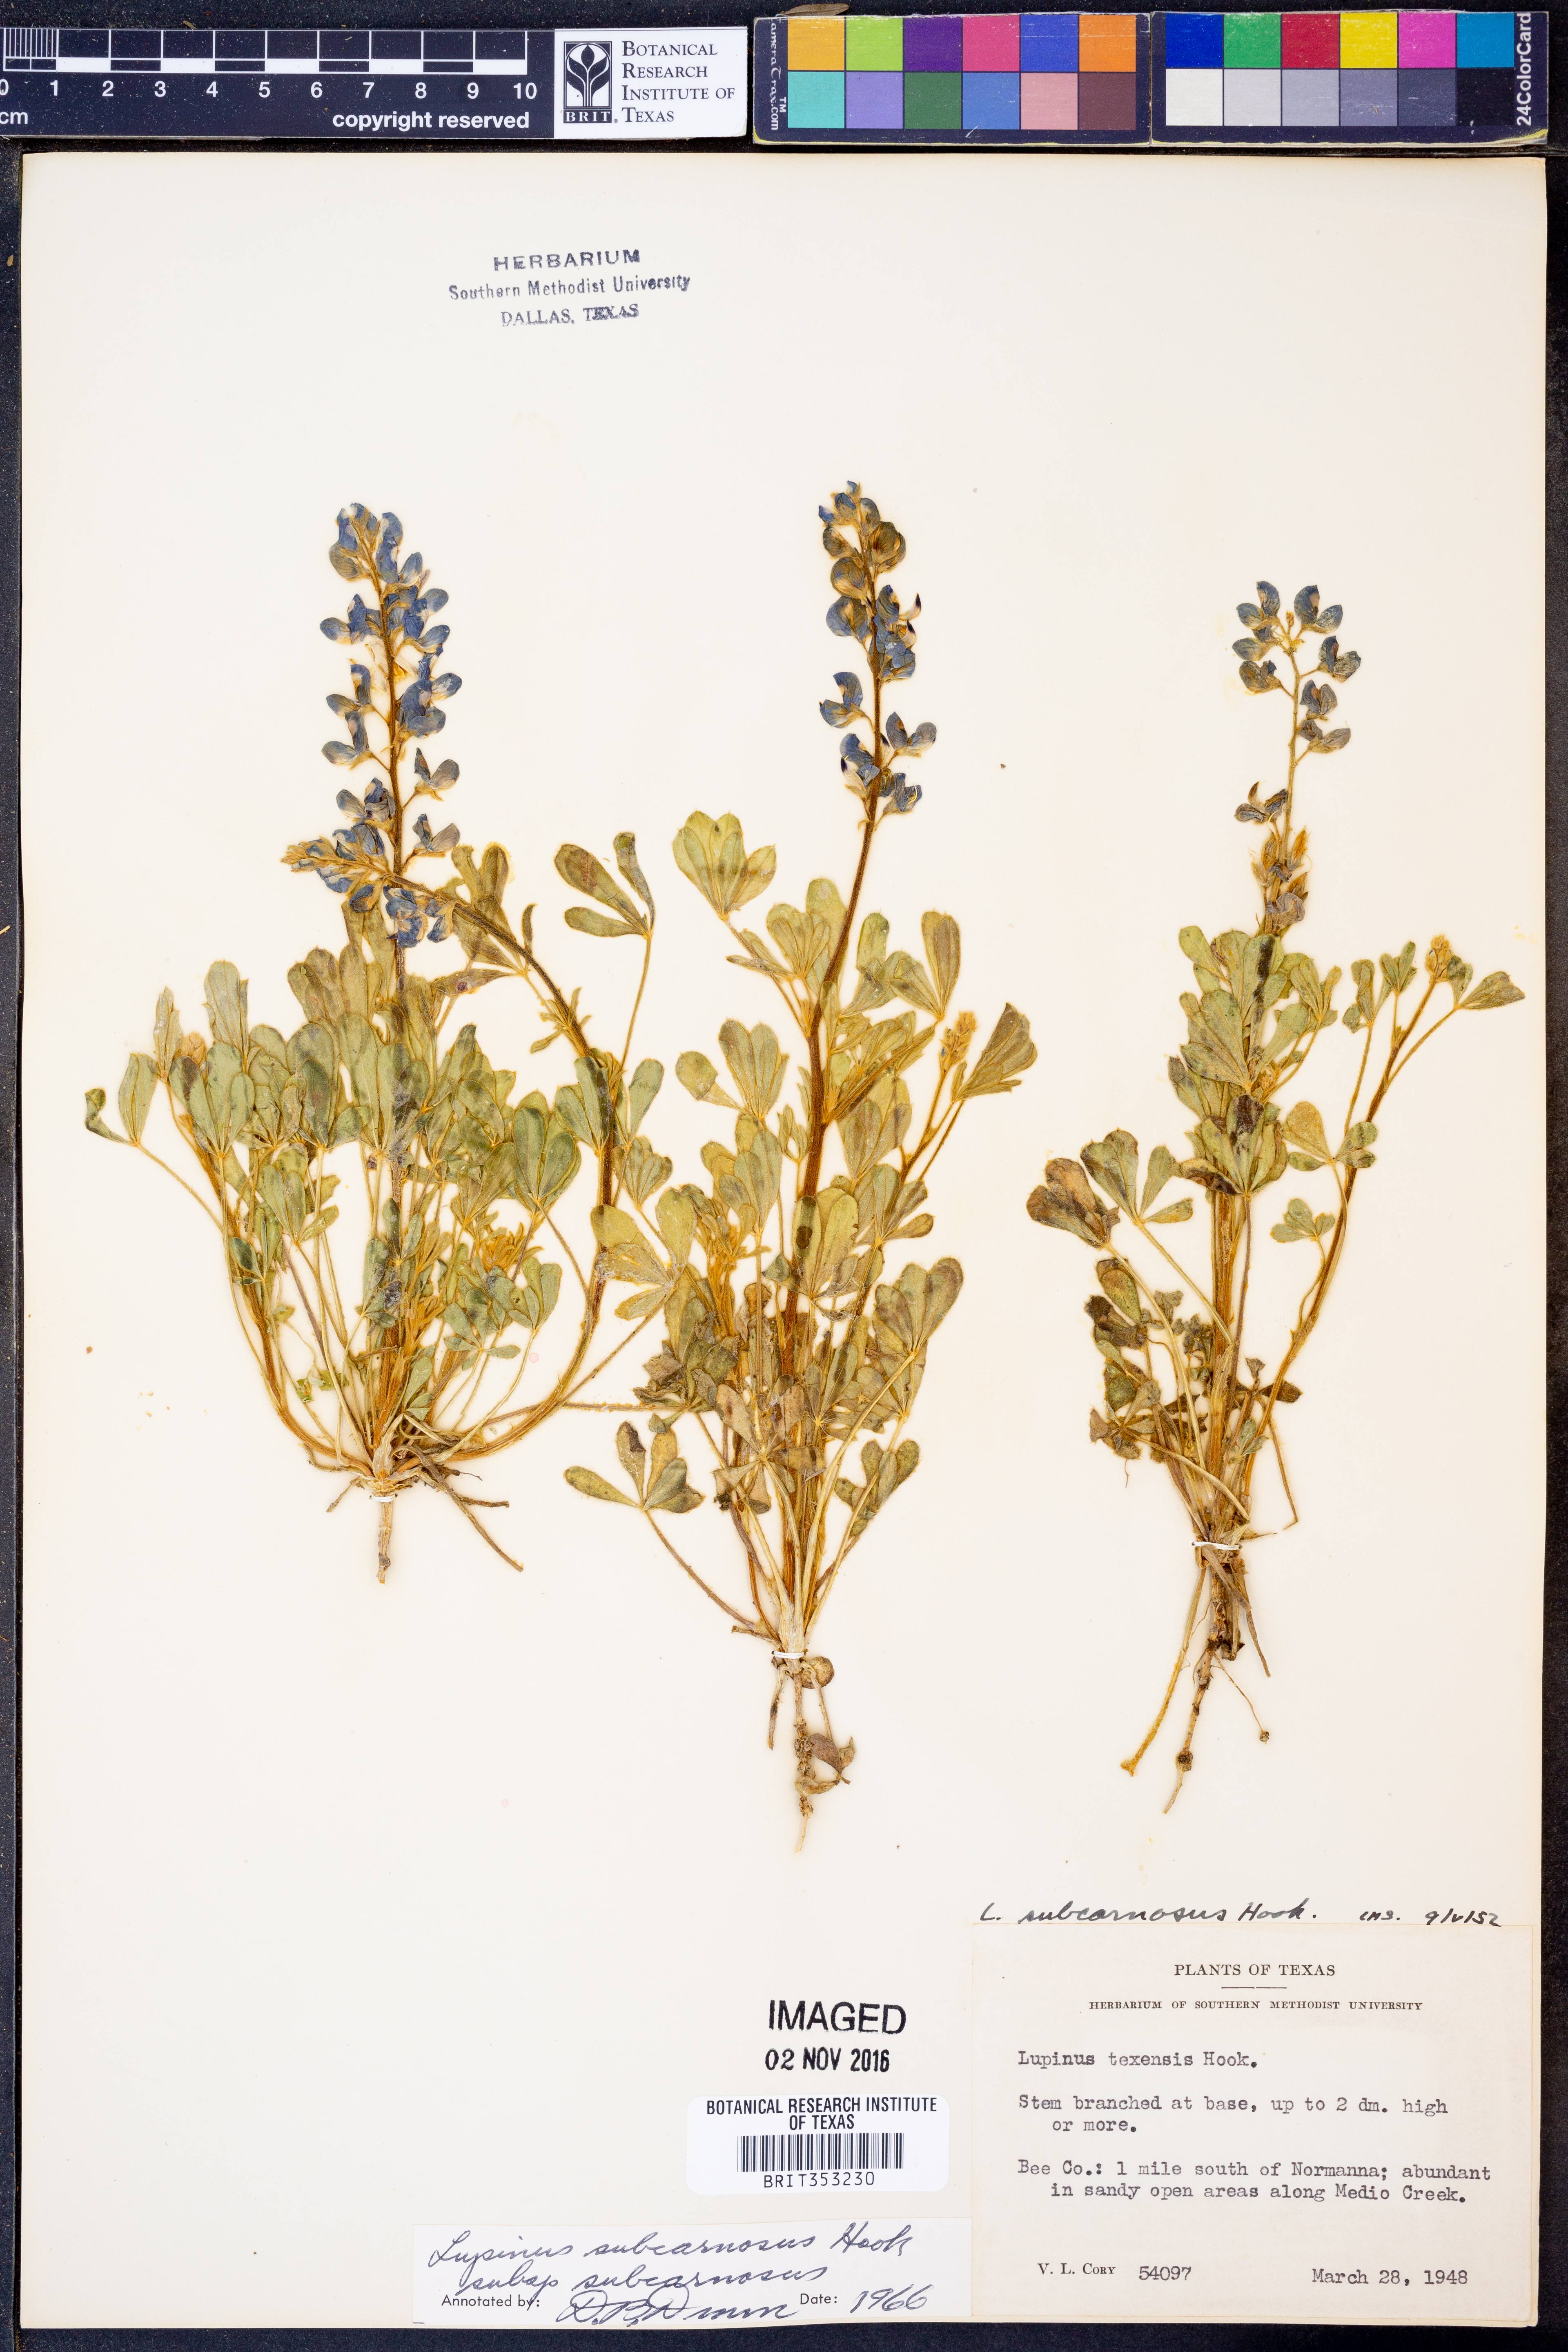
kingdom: Plantae
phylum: Tracheophyta
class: Magnoliopsida
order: Fabales
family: Fabaceae
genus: Lupinus
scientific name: Lupinus subcarnosus
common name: Texas bluebonnet
